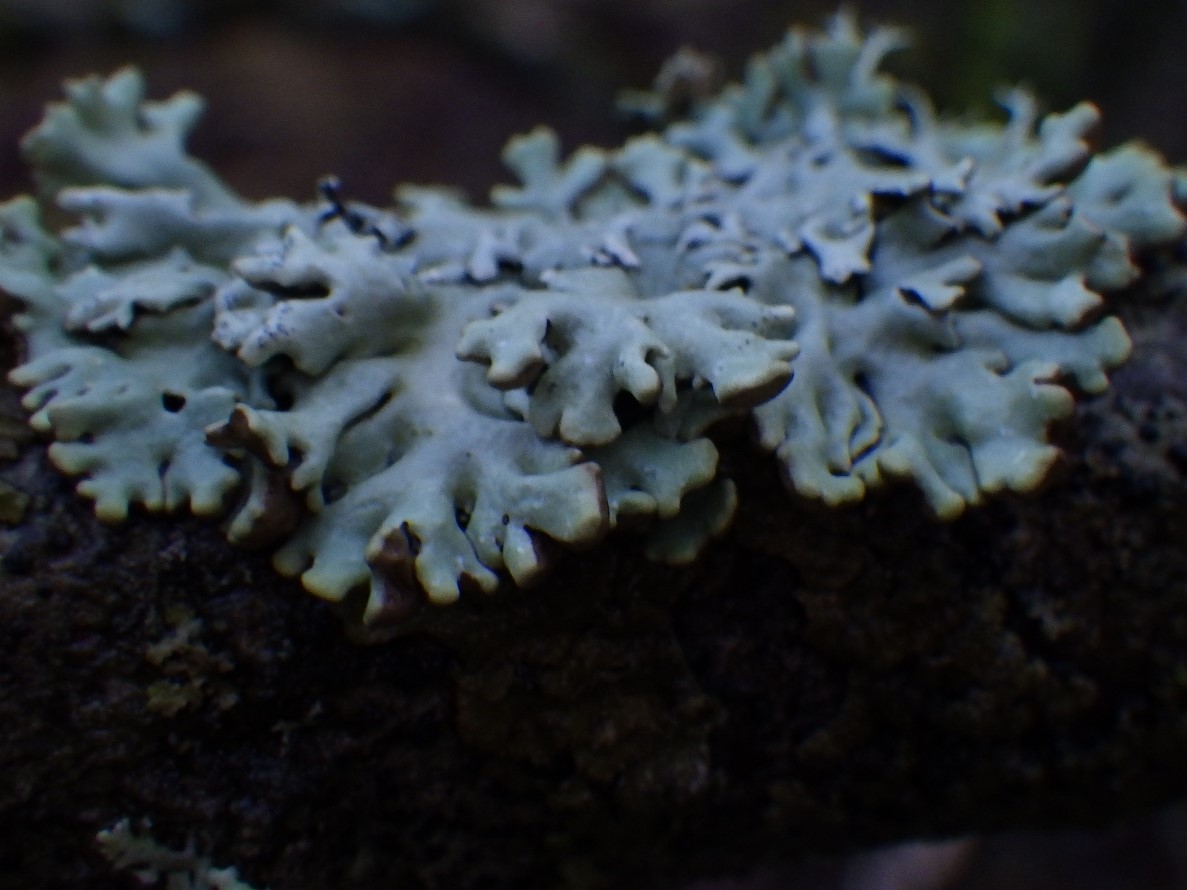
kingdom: Fungi
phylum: Ascomycota
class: Lecanoromycetes
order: Lecanorales
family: Parmeliaceae
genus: Hypogymnia
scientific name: Hypogymnia physodes
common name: almindelig kvistlav
